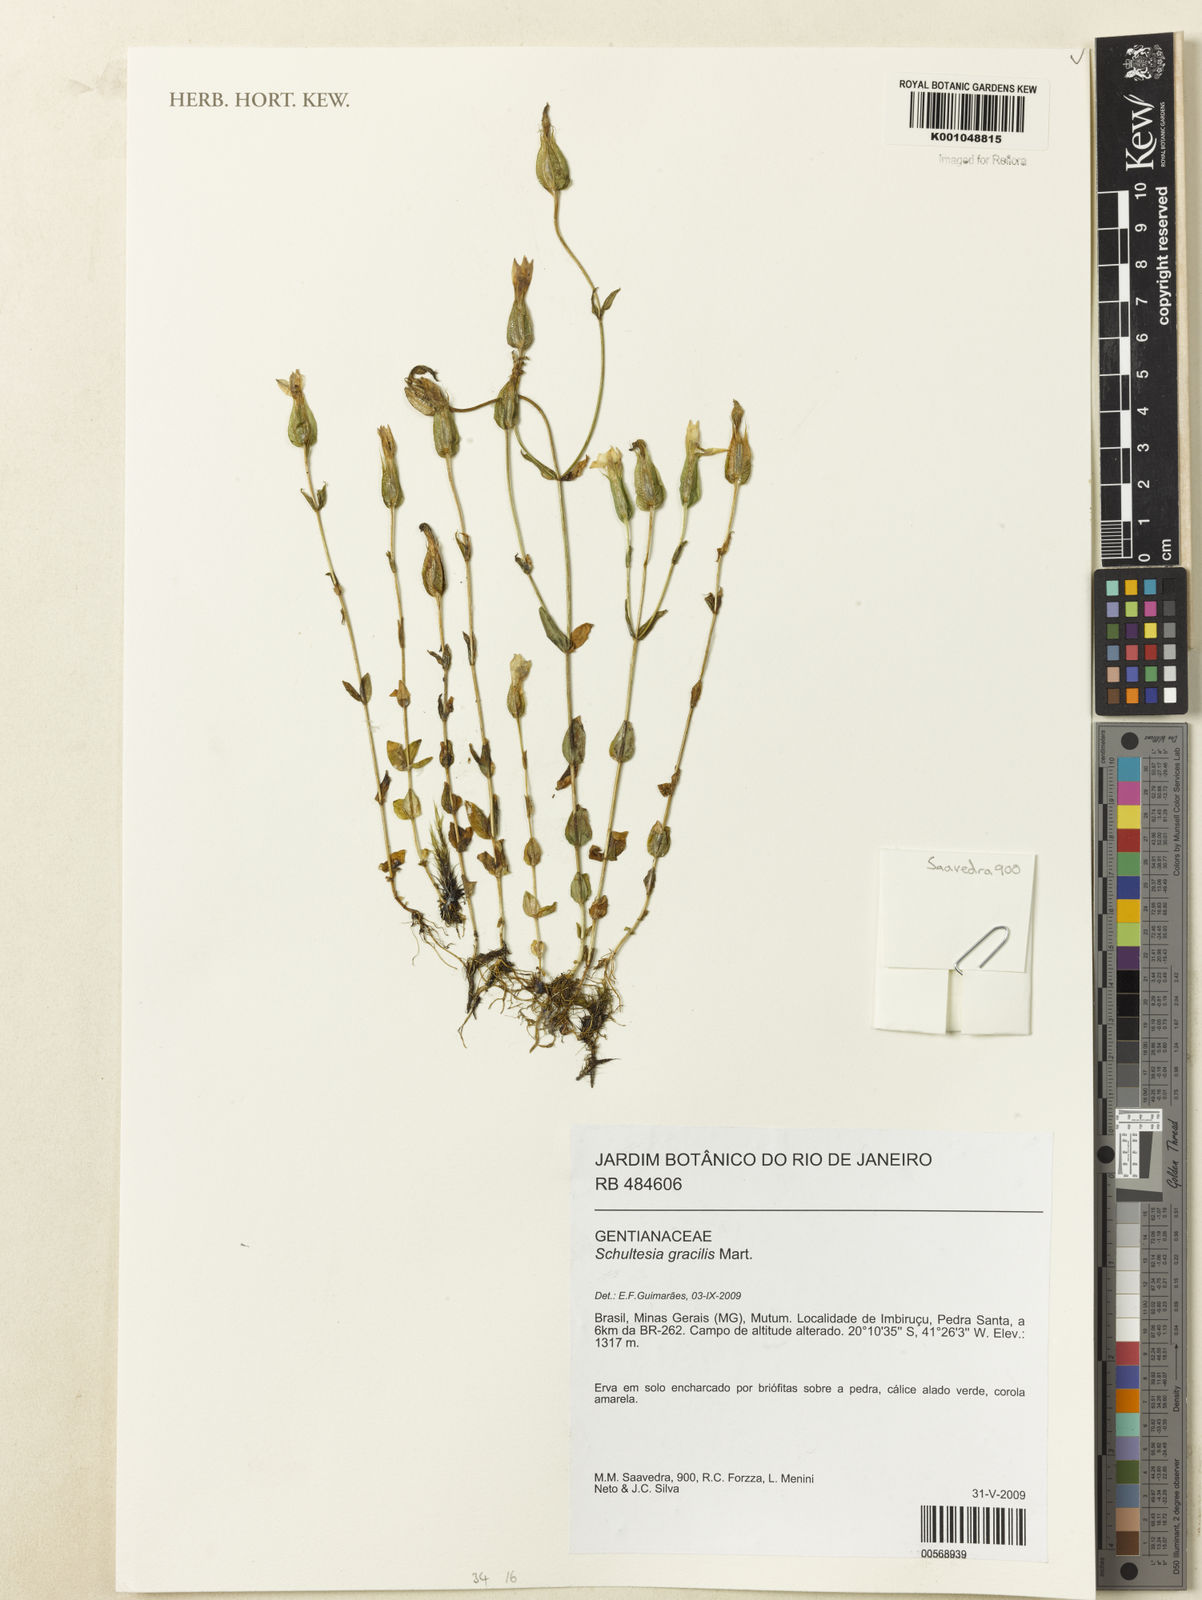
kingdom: Plantae
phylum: Tracheophyta
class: Magnoliopsida
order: Gentianales
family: Gentianaceae
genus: Schultesia
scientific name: Schultesia gracilis
